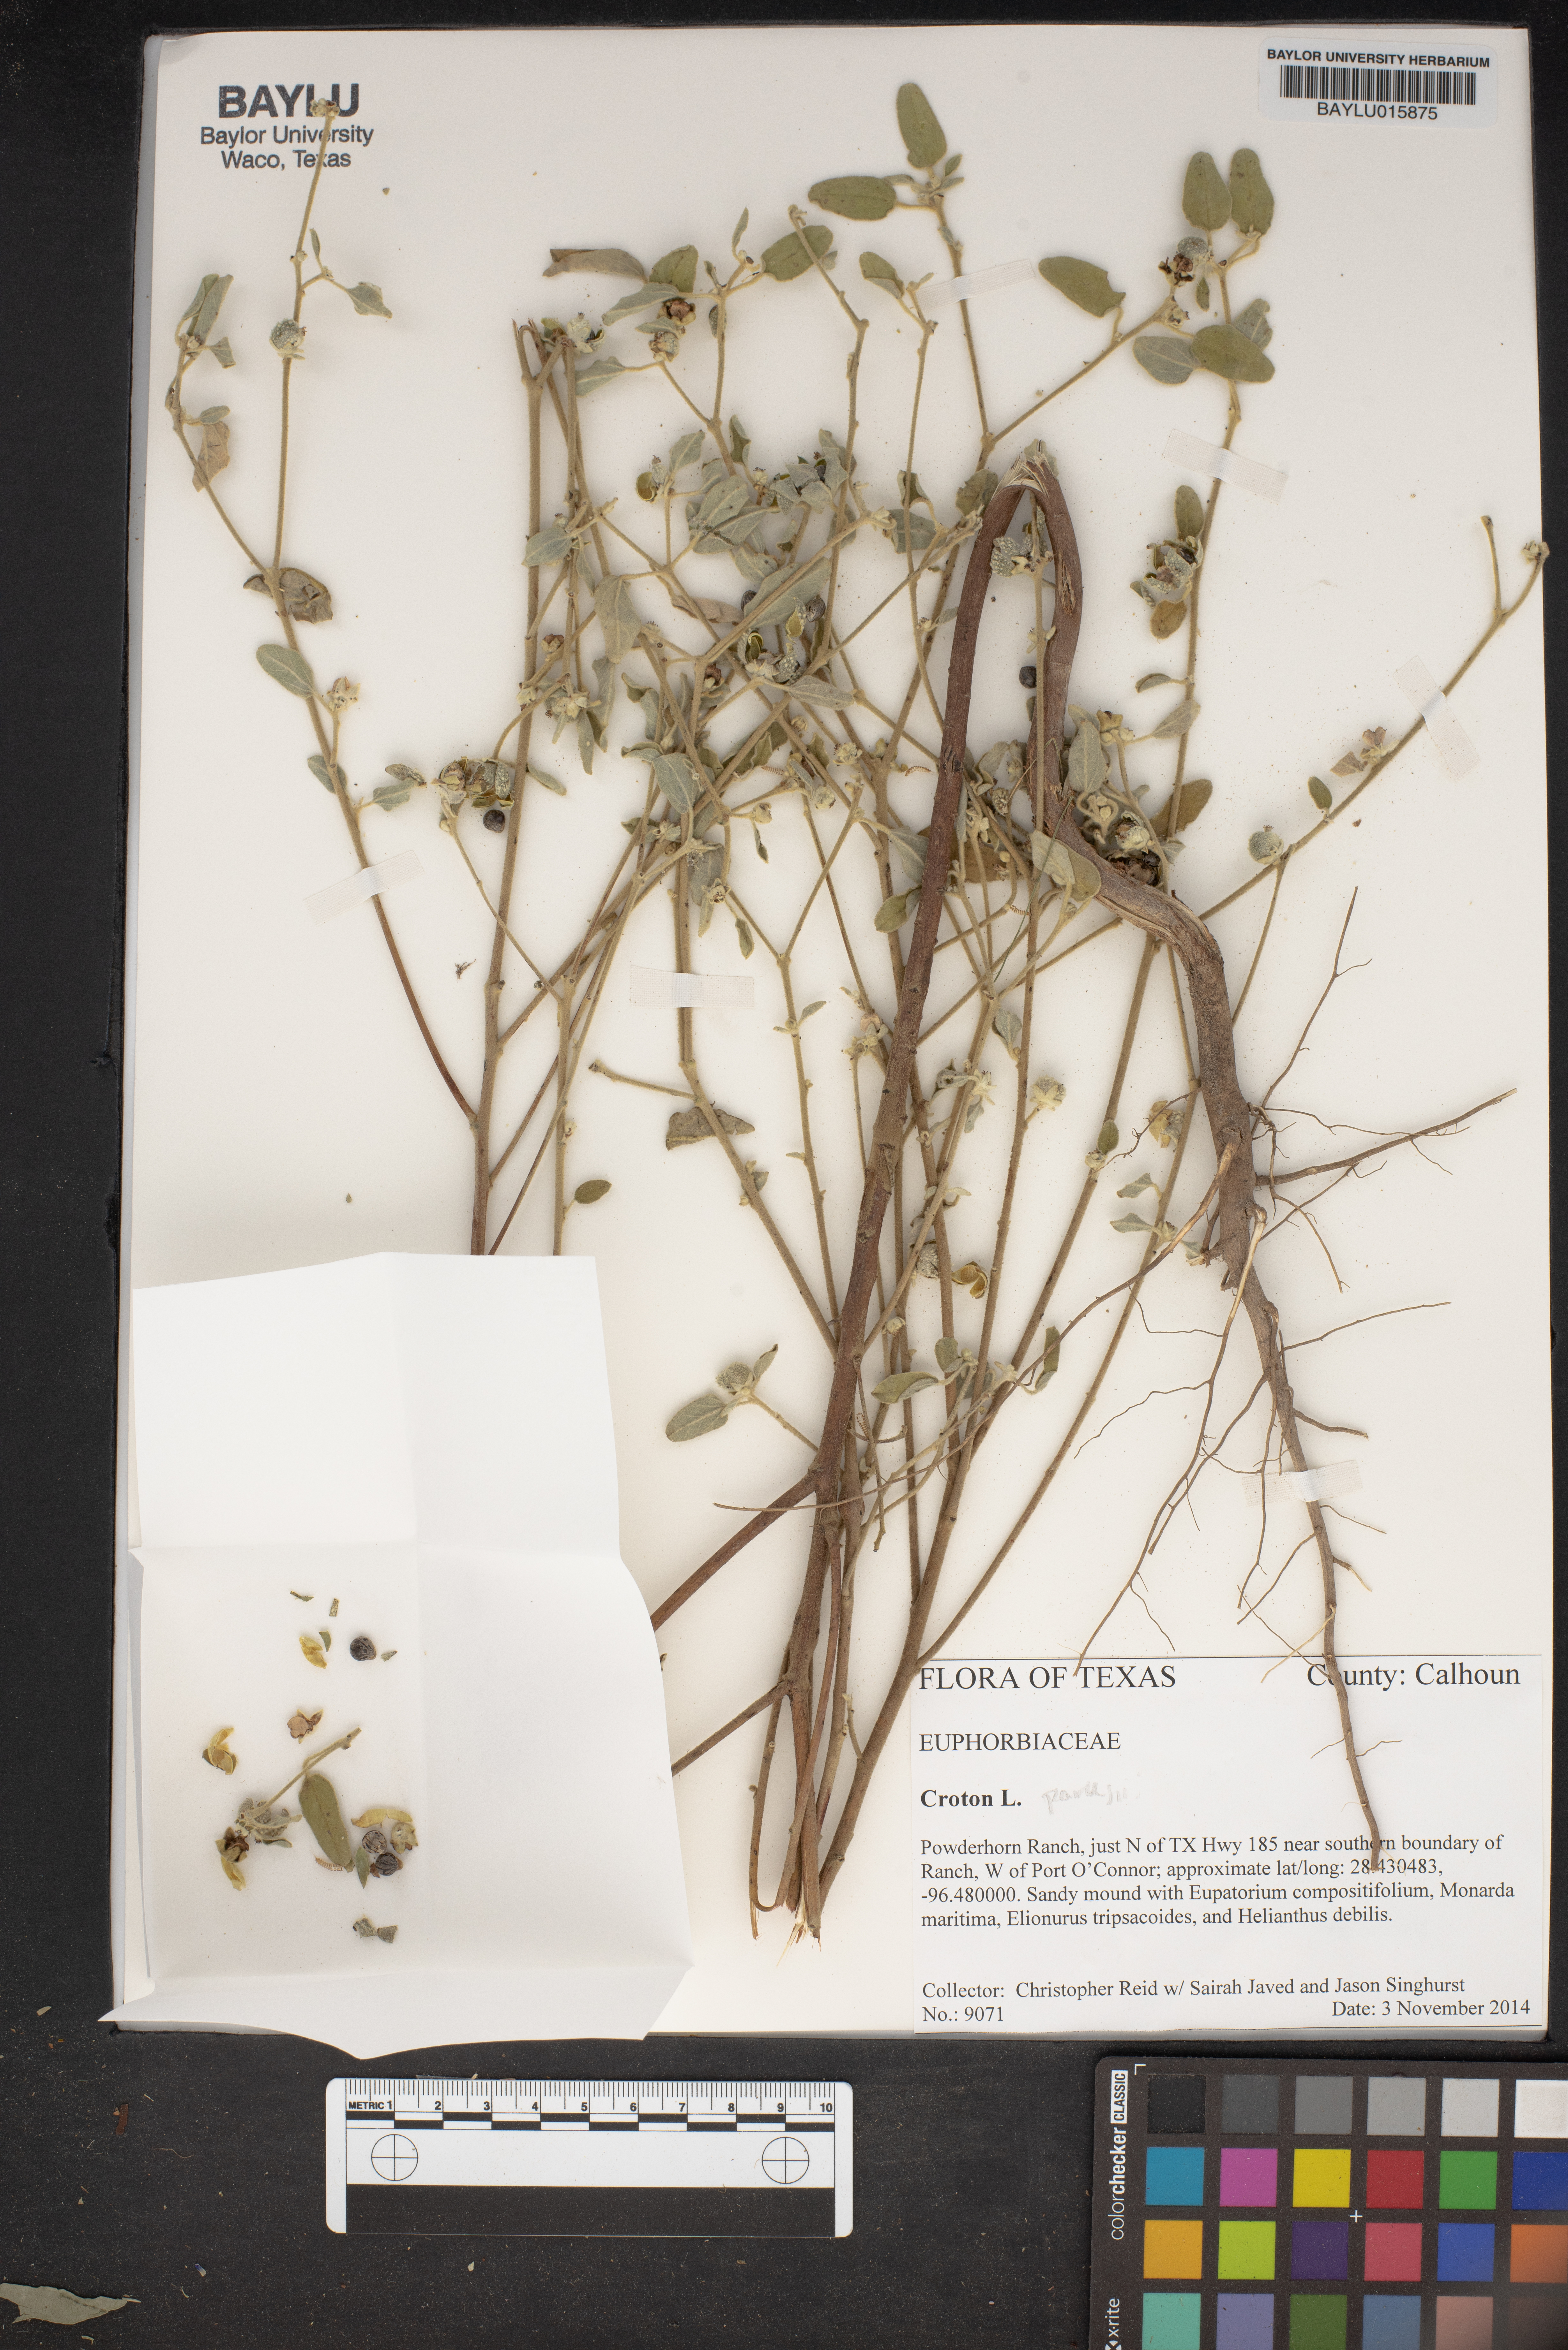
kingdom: Plantae
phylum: Tracheophyta
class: Magnoliopsida
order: Malpighiales
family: Euphorbiaceae
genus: Croton
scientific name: Croton parksii
